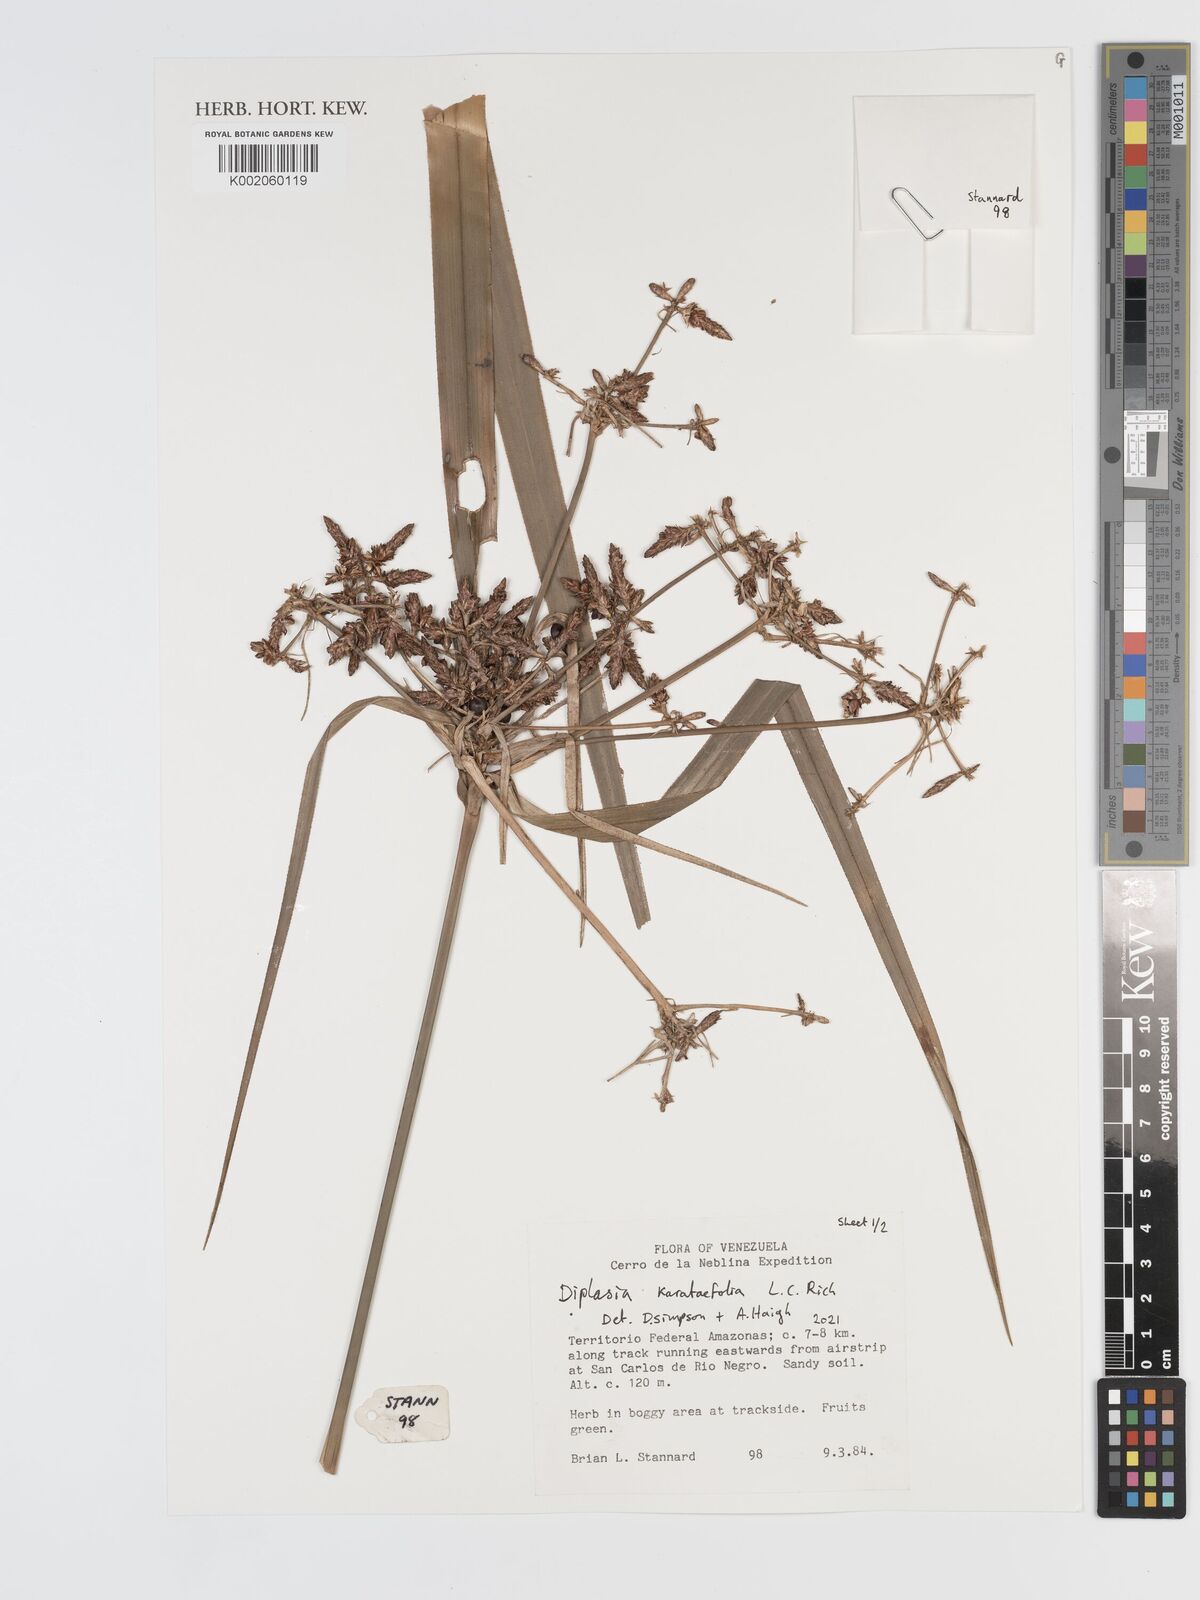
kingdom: Plantae
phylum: Tracheophyta
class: Liliopsida
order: Poales
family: Cyperaceae
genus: Diplasia
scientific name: Diplasia karatifolia
